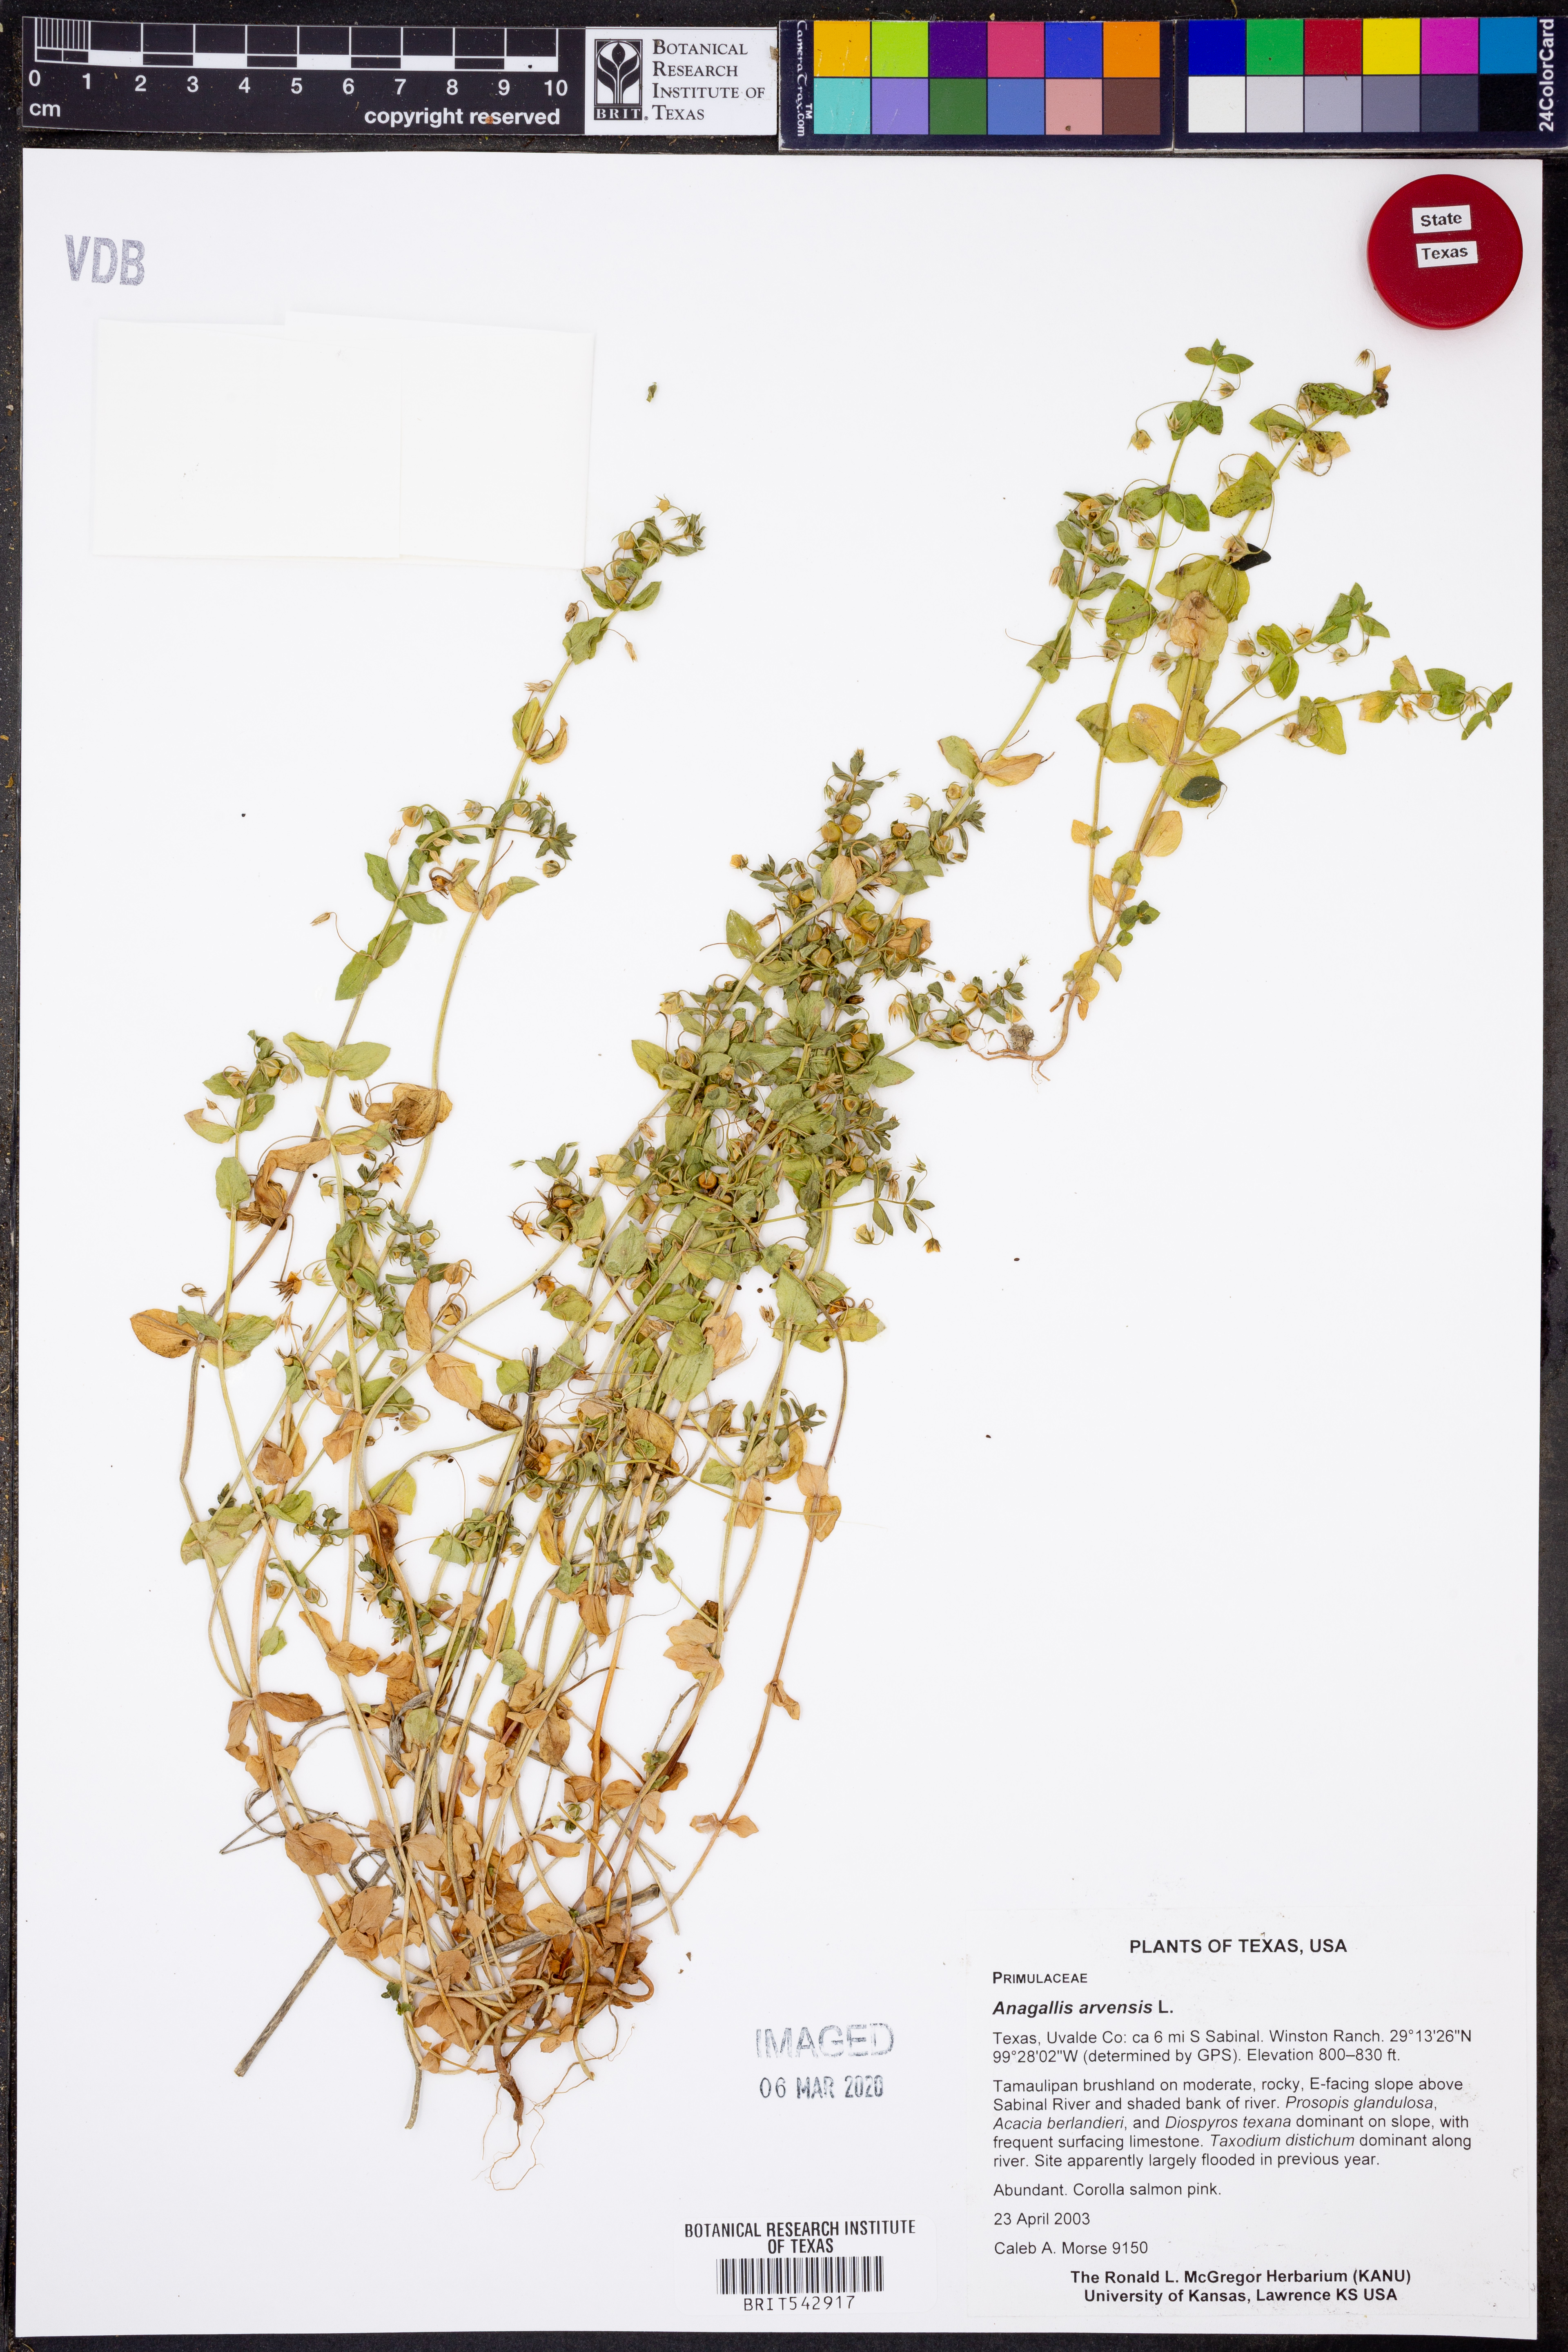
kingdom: Plantae
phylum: Tracheophyta
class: Magnoliopsida
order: Ericales
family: Primulaceae
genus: Lysimachia
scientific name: Lysimachia arvensis
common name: Scarlet pimpernel
